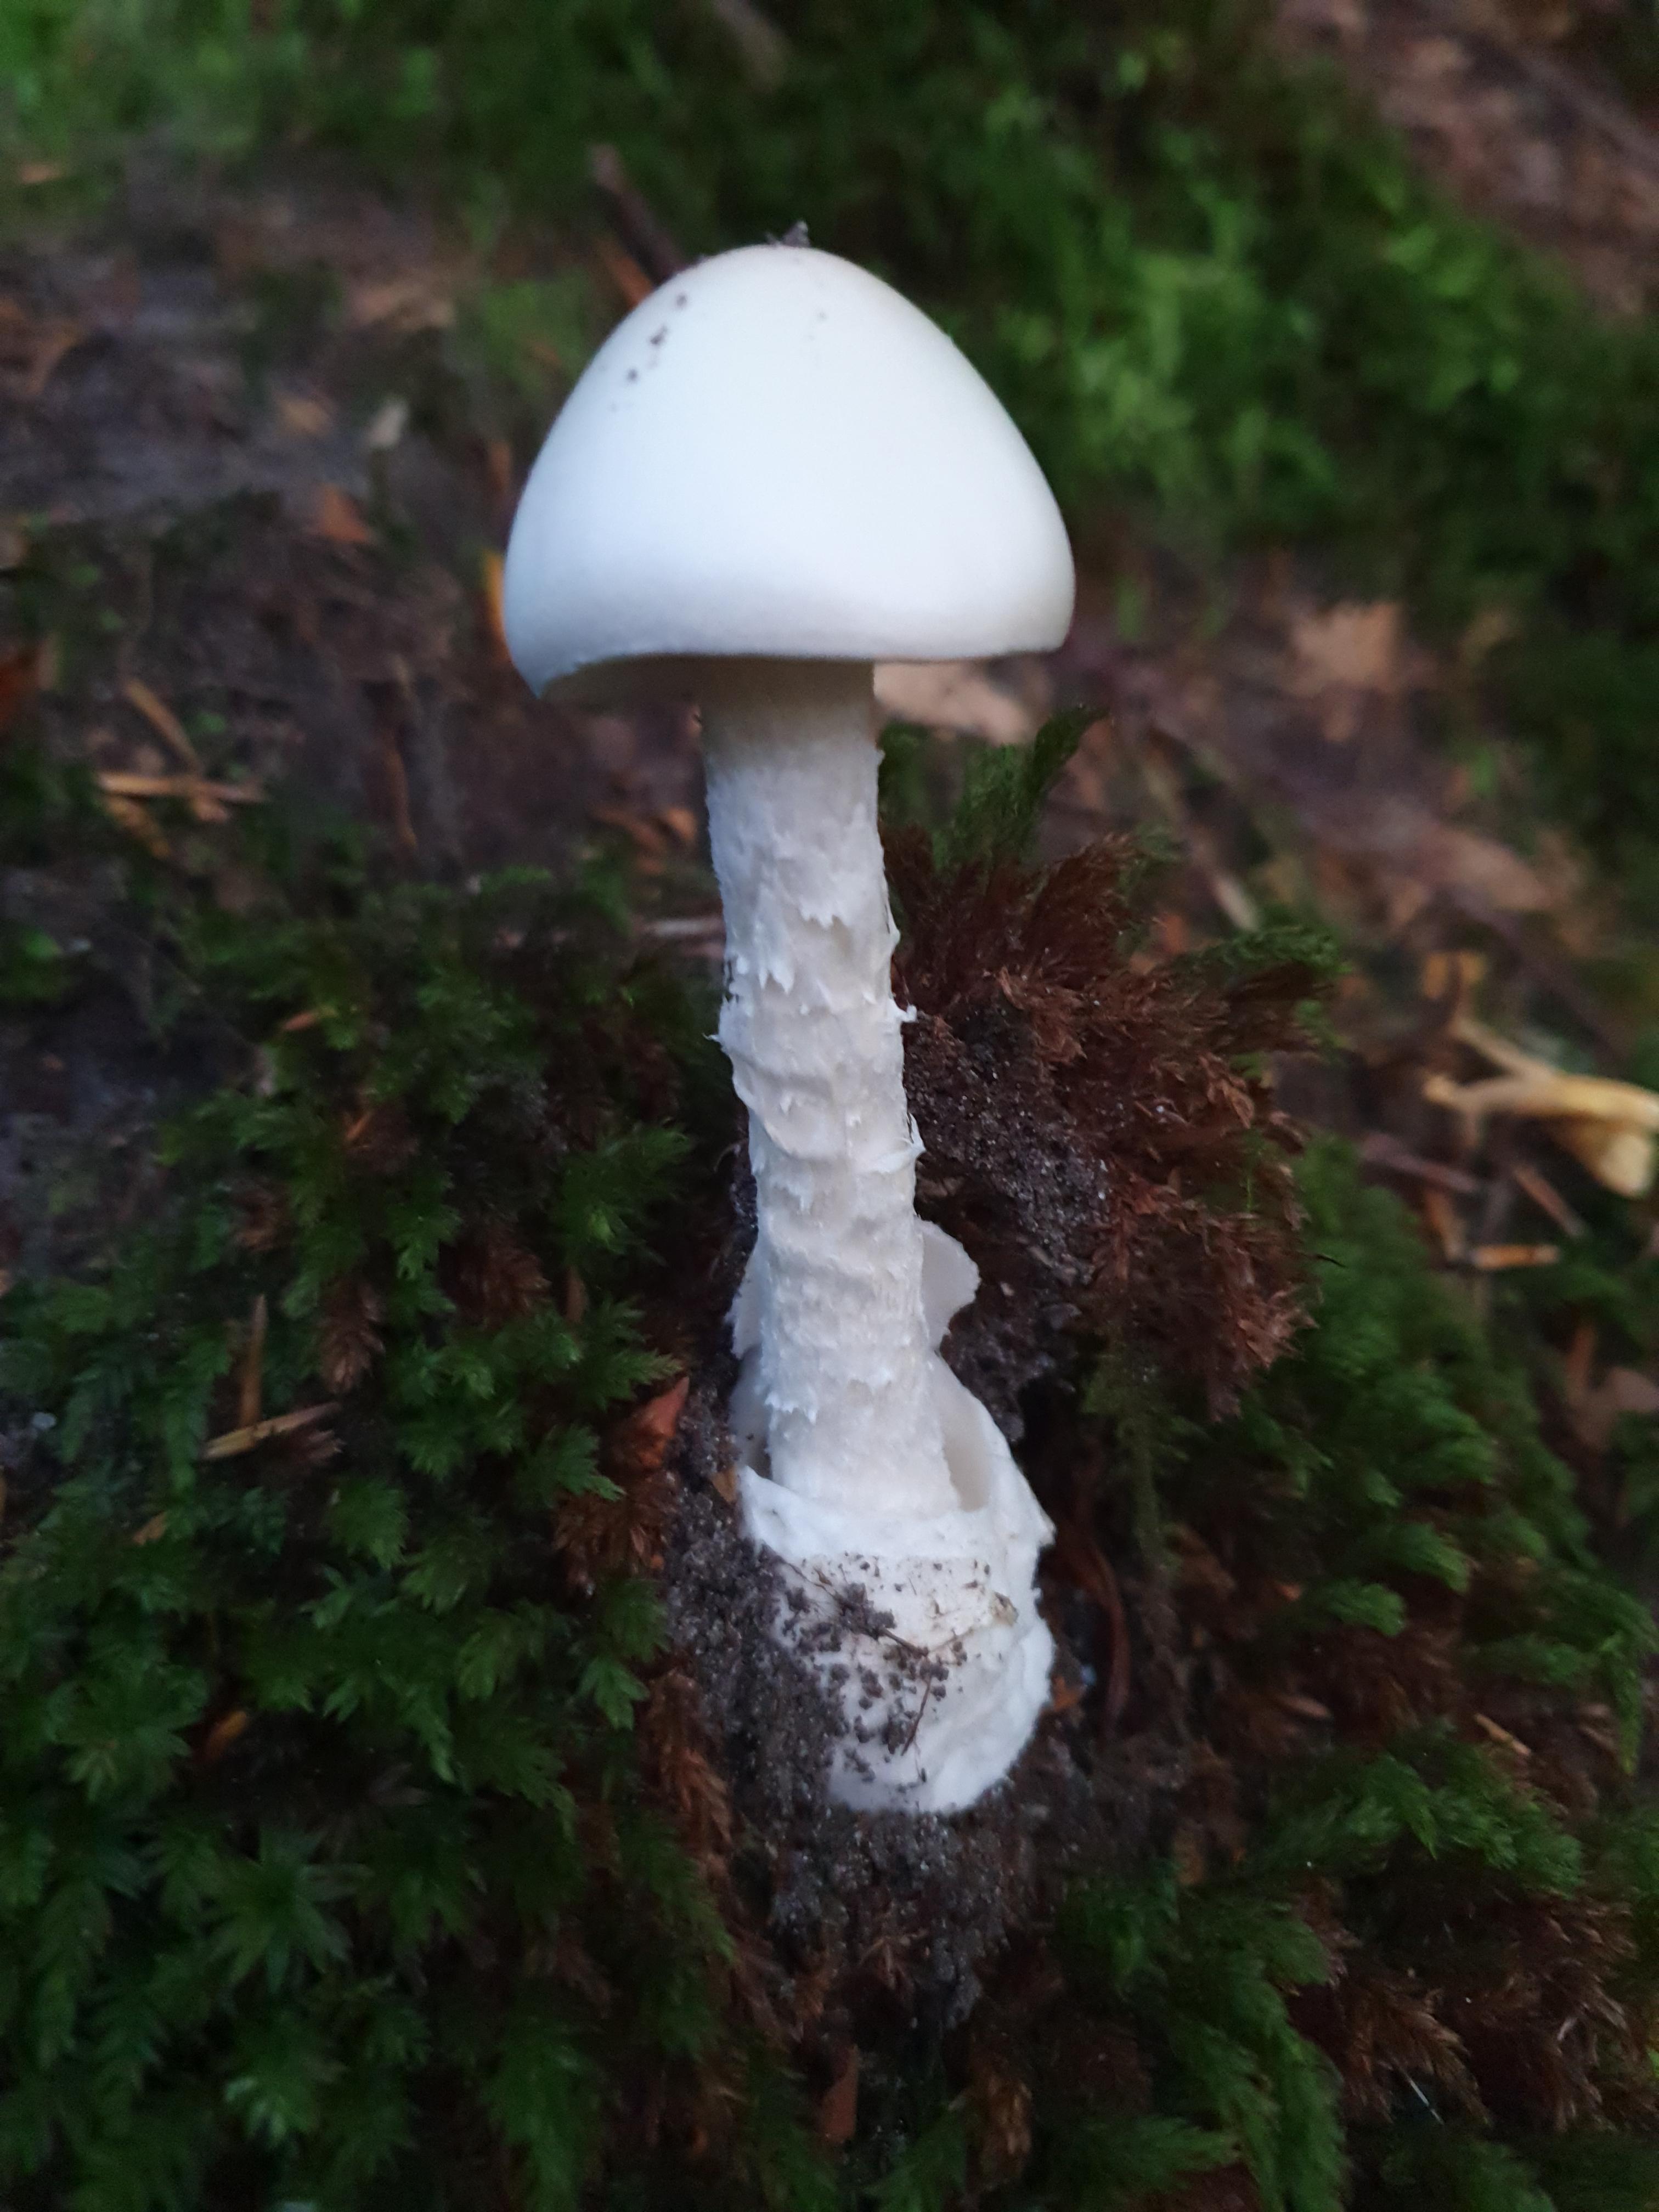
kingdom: Fungi
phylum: Basidiomycota
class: Agaricomycetes
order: Agaricales
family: Amanitaceae
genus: Amanita
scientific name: Amanita virosa
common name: snehvid fluesvamp
